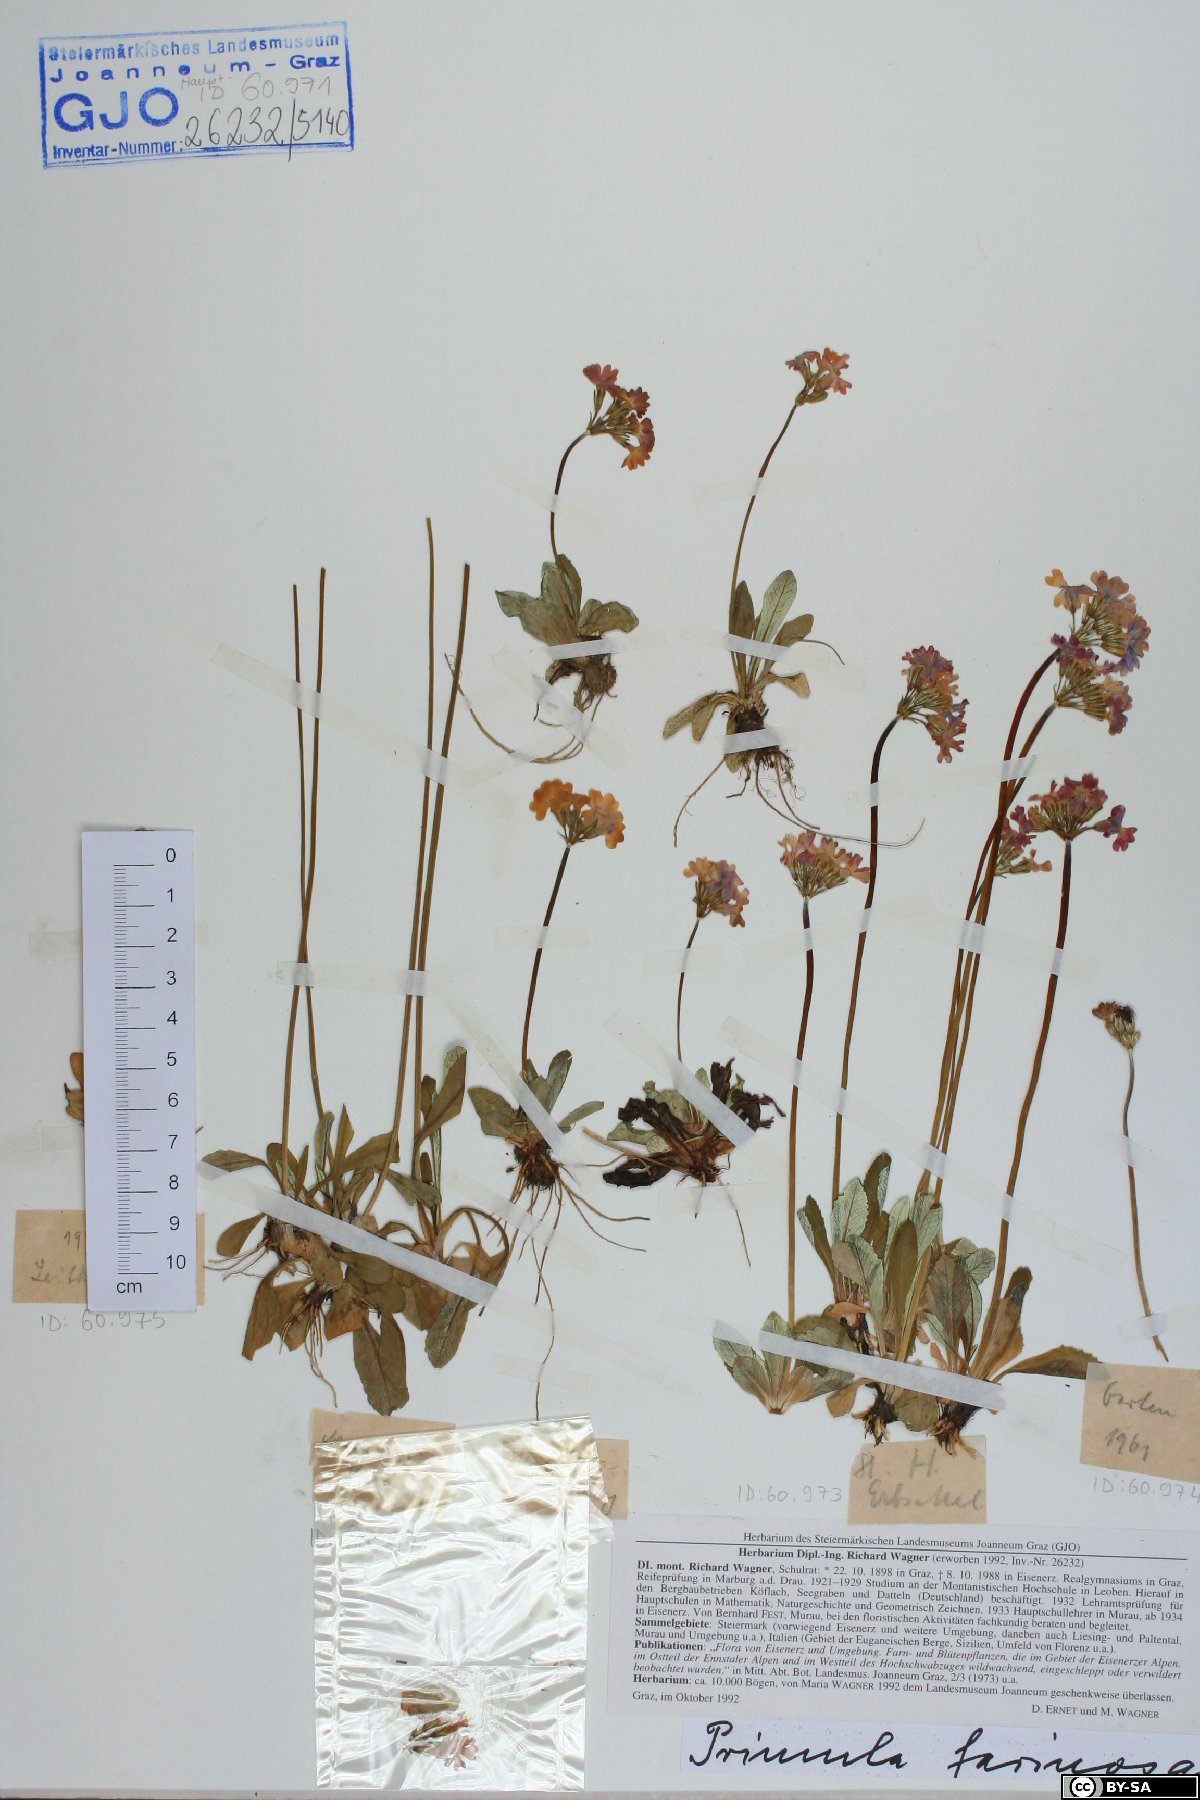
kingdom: Plantae
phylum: Tracheophyta
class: Magnoliopsida
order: Ericales
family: Primulaceae
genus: Primula
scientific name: Primula farinosa
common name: Bird's-eye primrose
